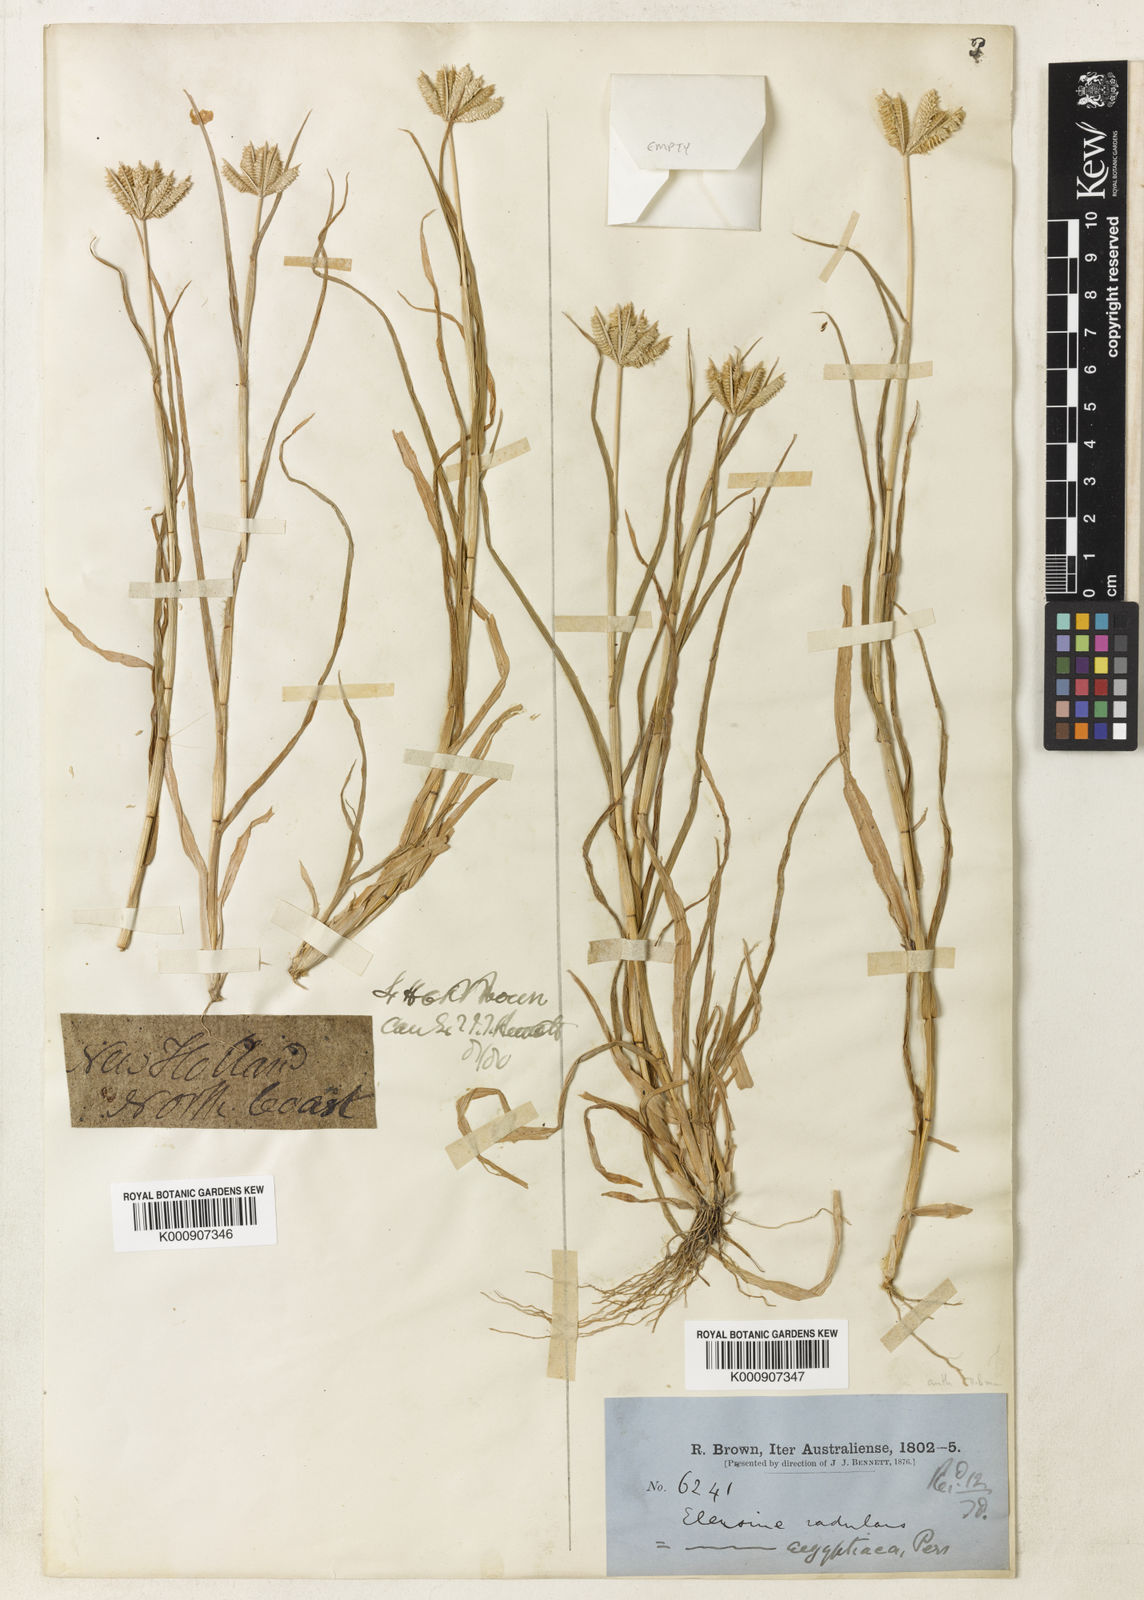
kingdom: Plantae
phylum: Tracheophyta
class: Liliopsida
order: Poales
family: Poaceae
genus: Dactyloctenium
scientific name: Dactyloctenium radulans
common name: Button-grass
